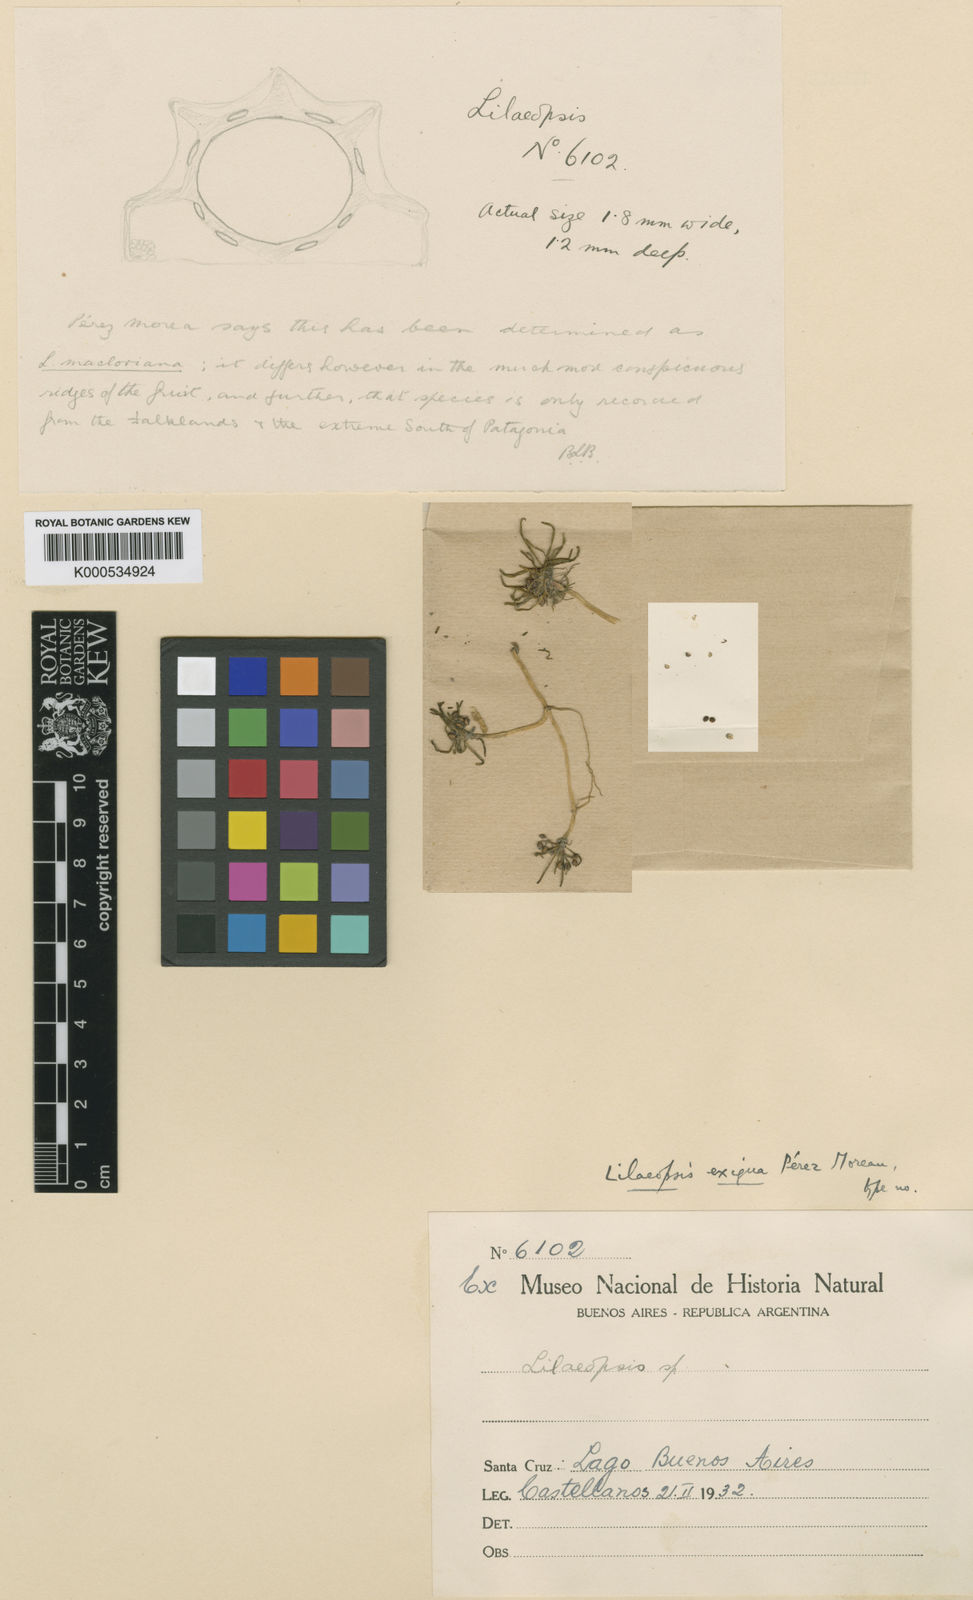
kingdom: Plantae
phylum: Tracheophyta
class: Magnoliopsida
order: Apiales
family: Apiaceae
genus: Lilaeopsis
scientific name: Lilaeopsis macloviana
